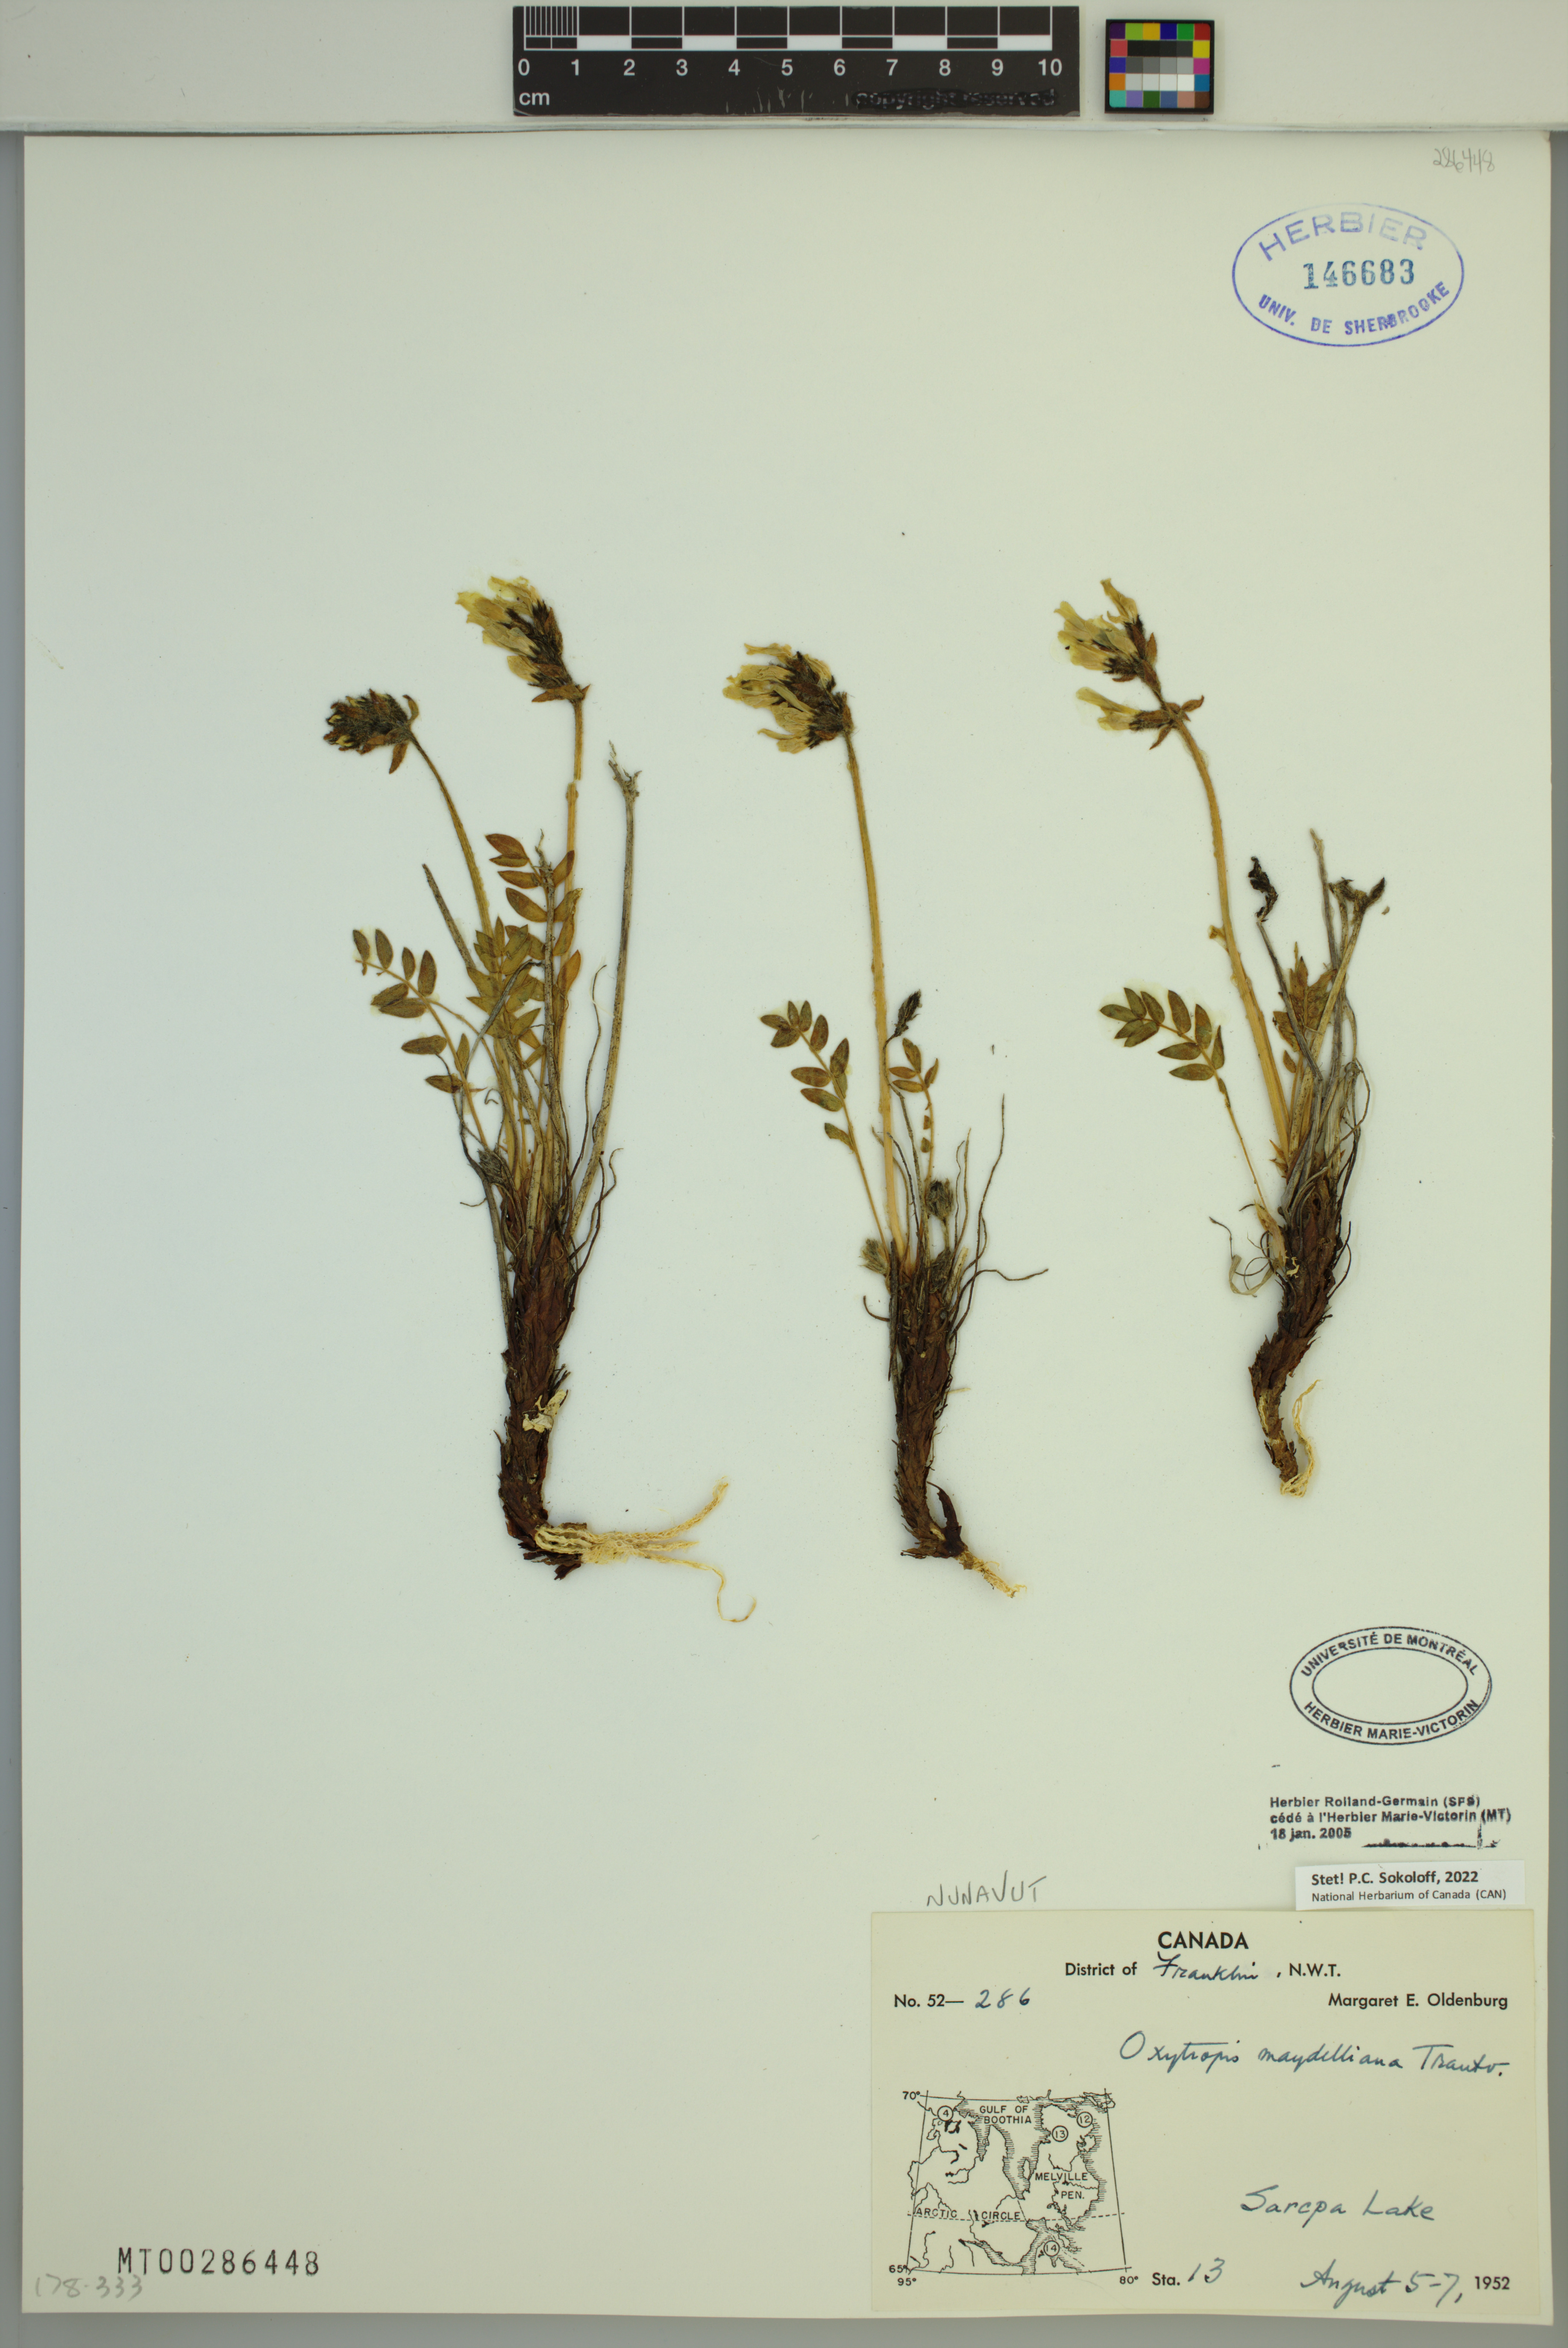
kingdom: Plantae
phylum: Tracheophyta
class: Magnoliopsida
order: Fabales
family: Fabaceae
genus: Oxytropis
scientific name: Oxytropis maydelliana
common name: Maydell's locoweed
